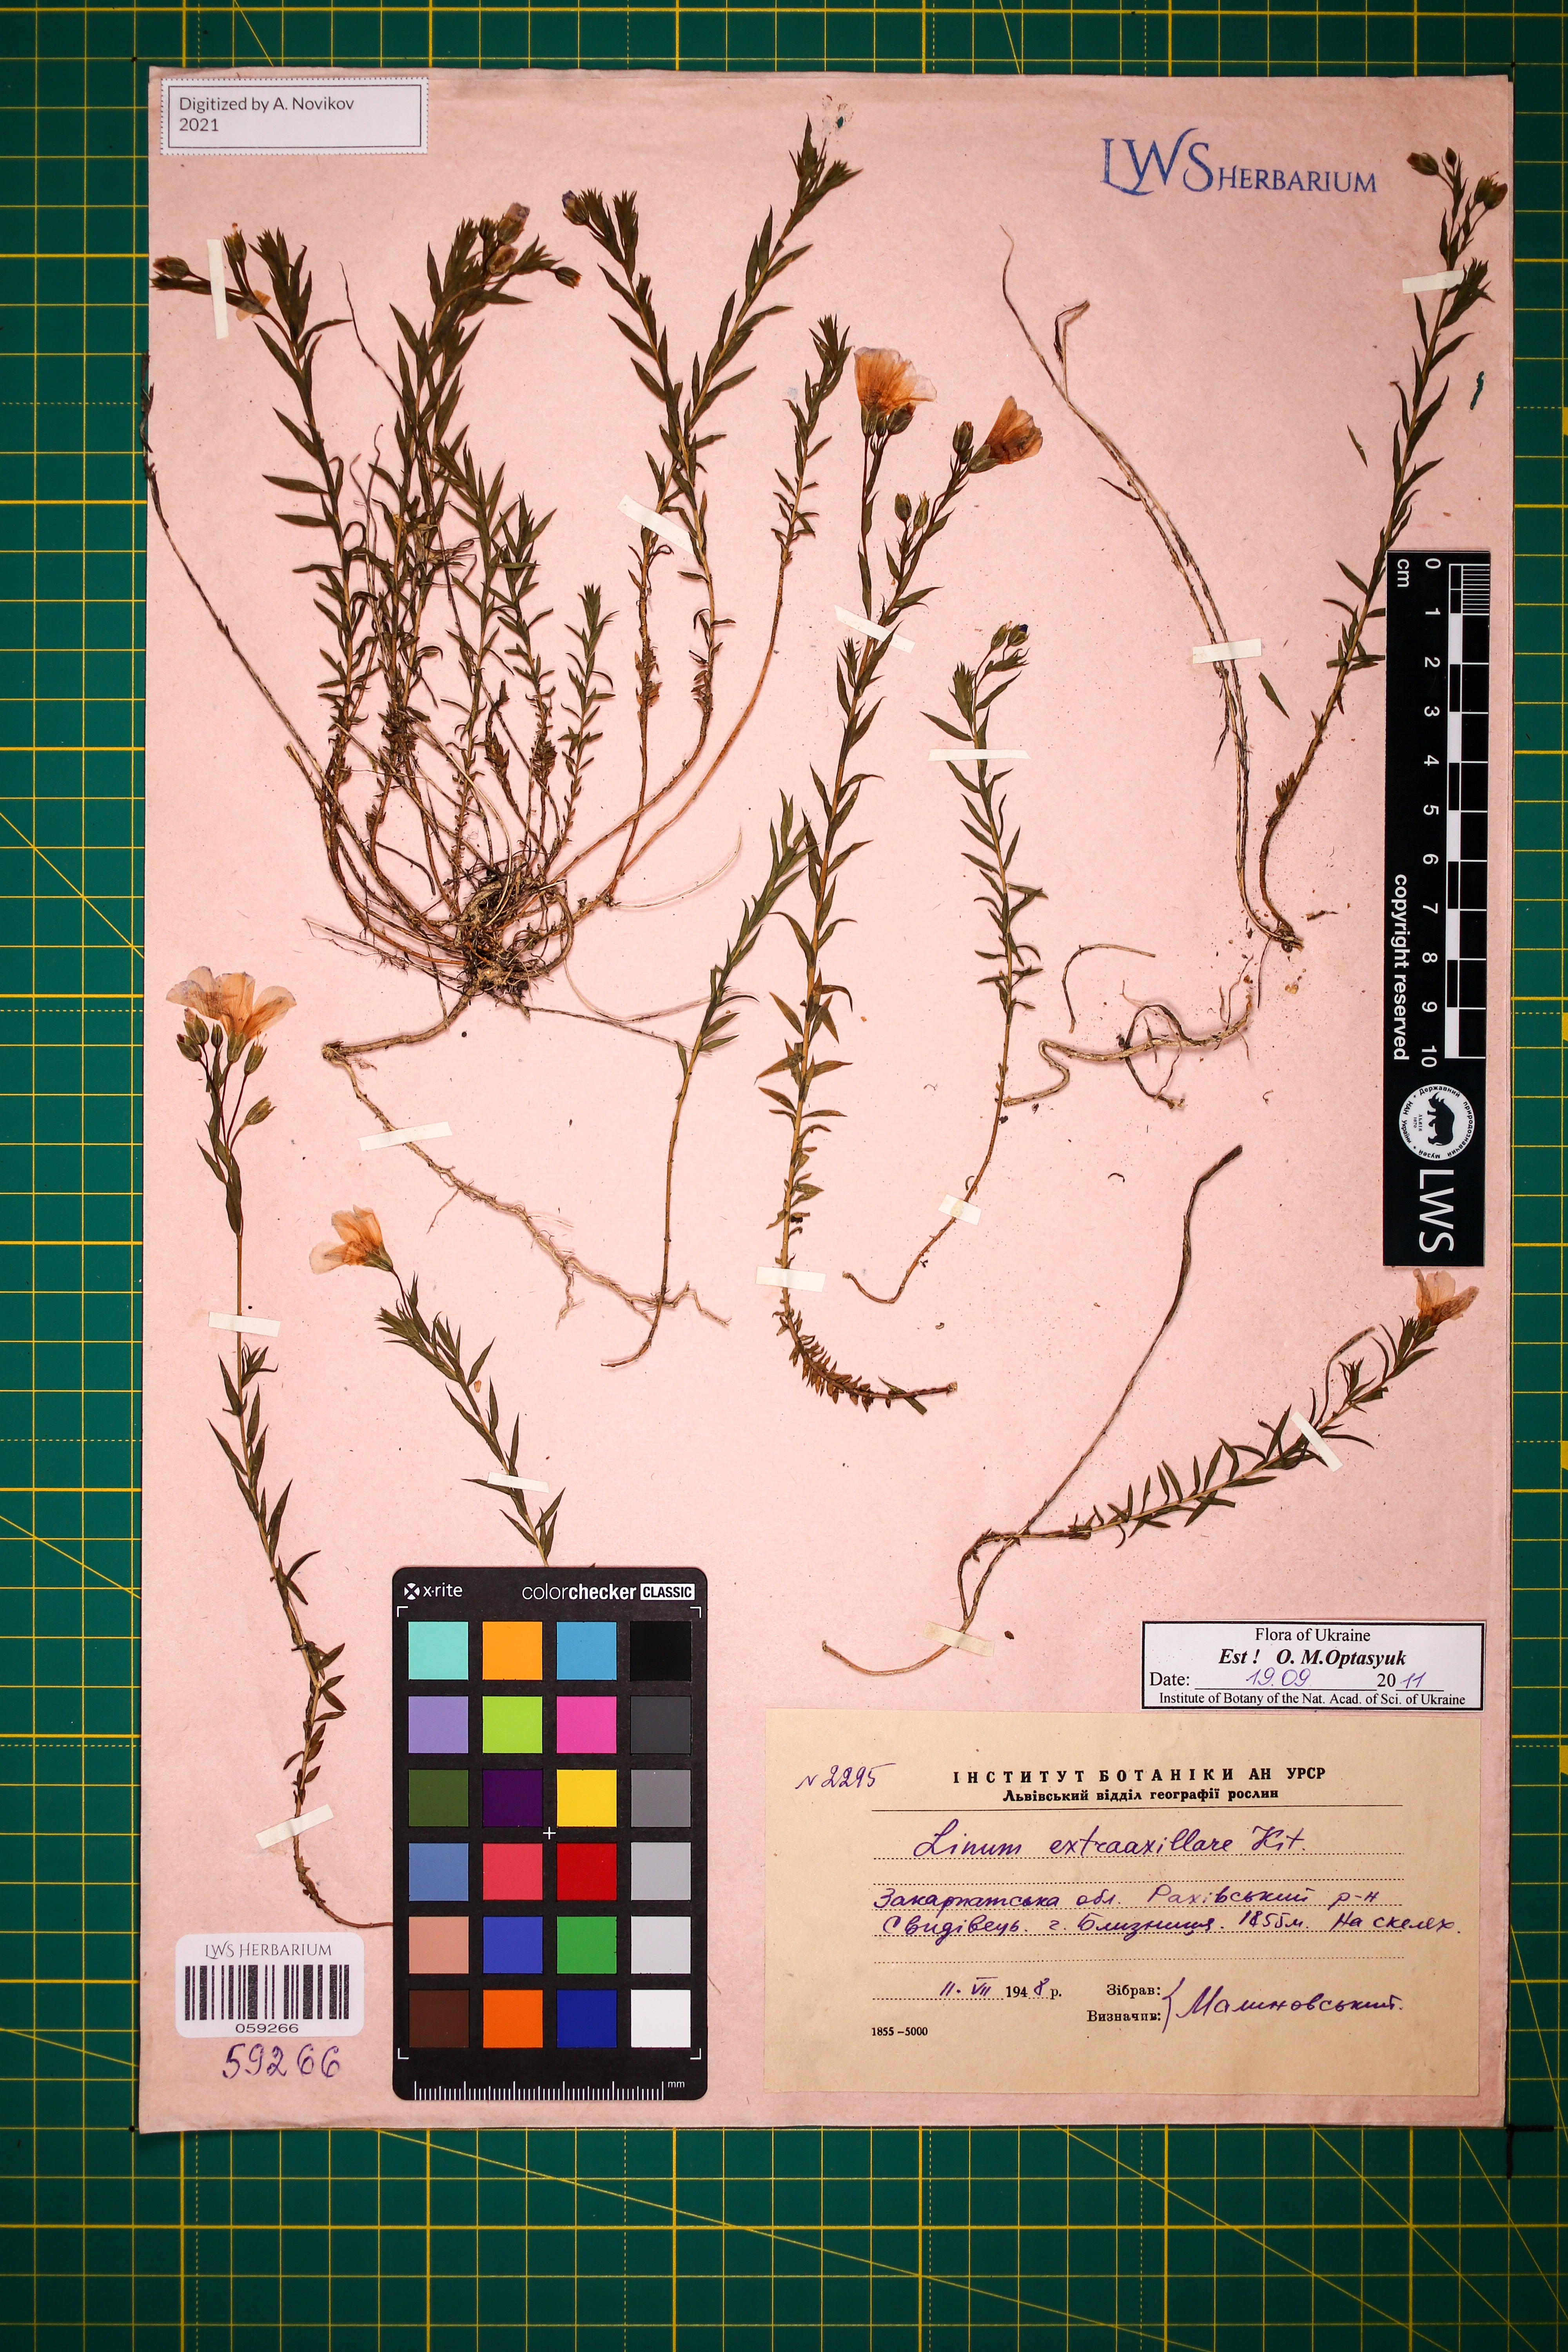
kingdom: Plantae
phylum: Tracheophyta
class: Magnoliopsida
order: Malpighiales
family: Linaceae
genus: Linum
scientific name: Linum perenne
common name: Blue flax
